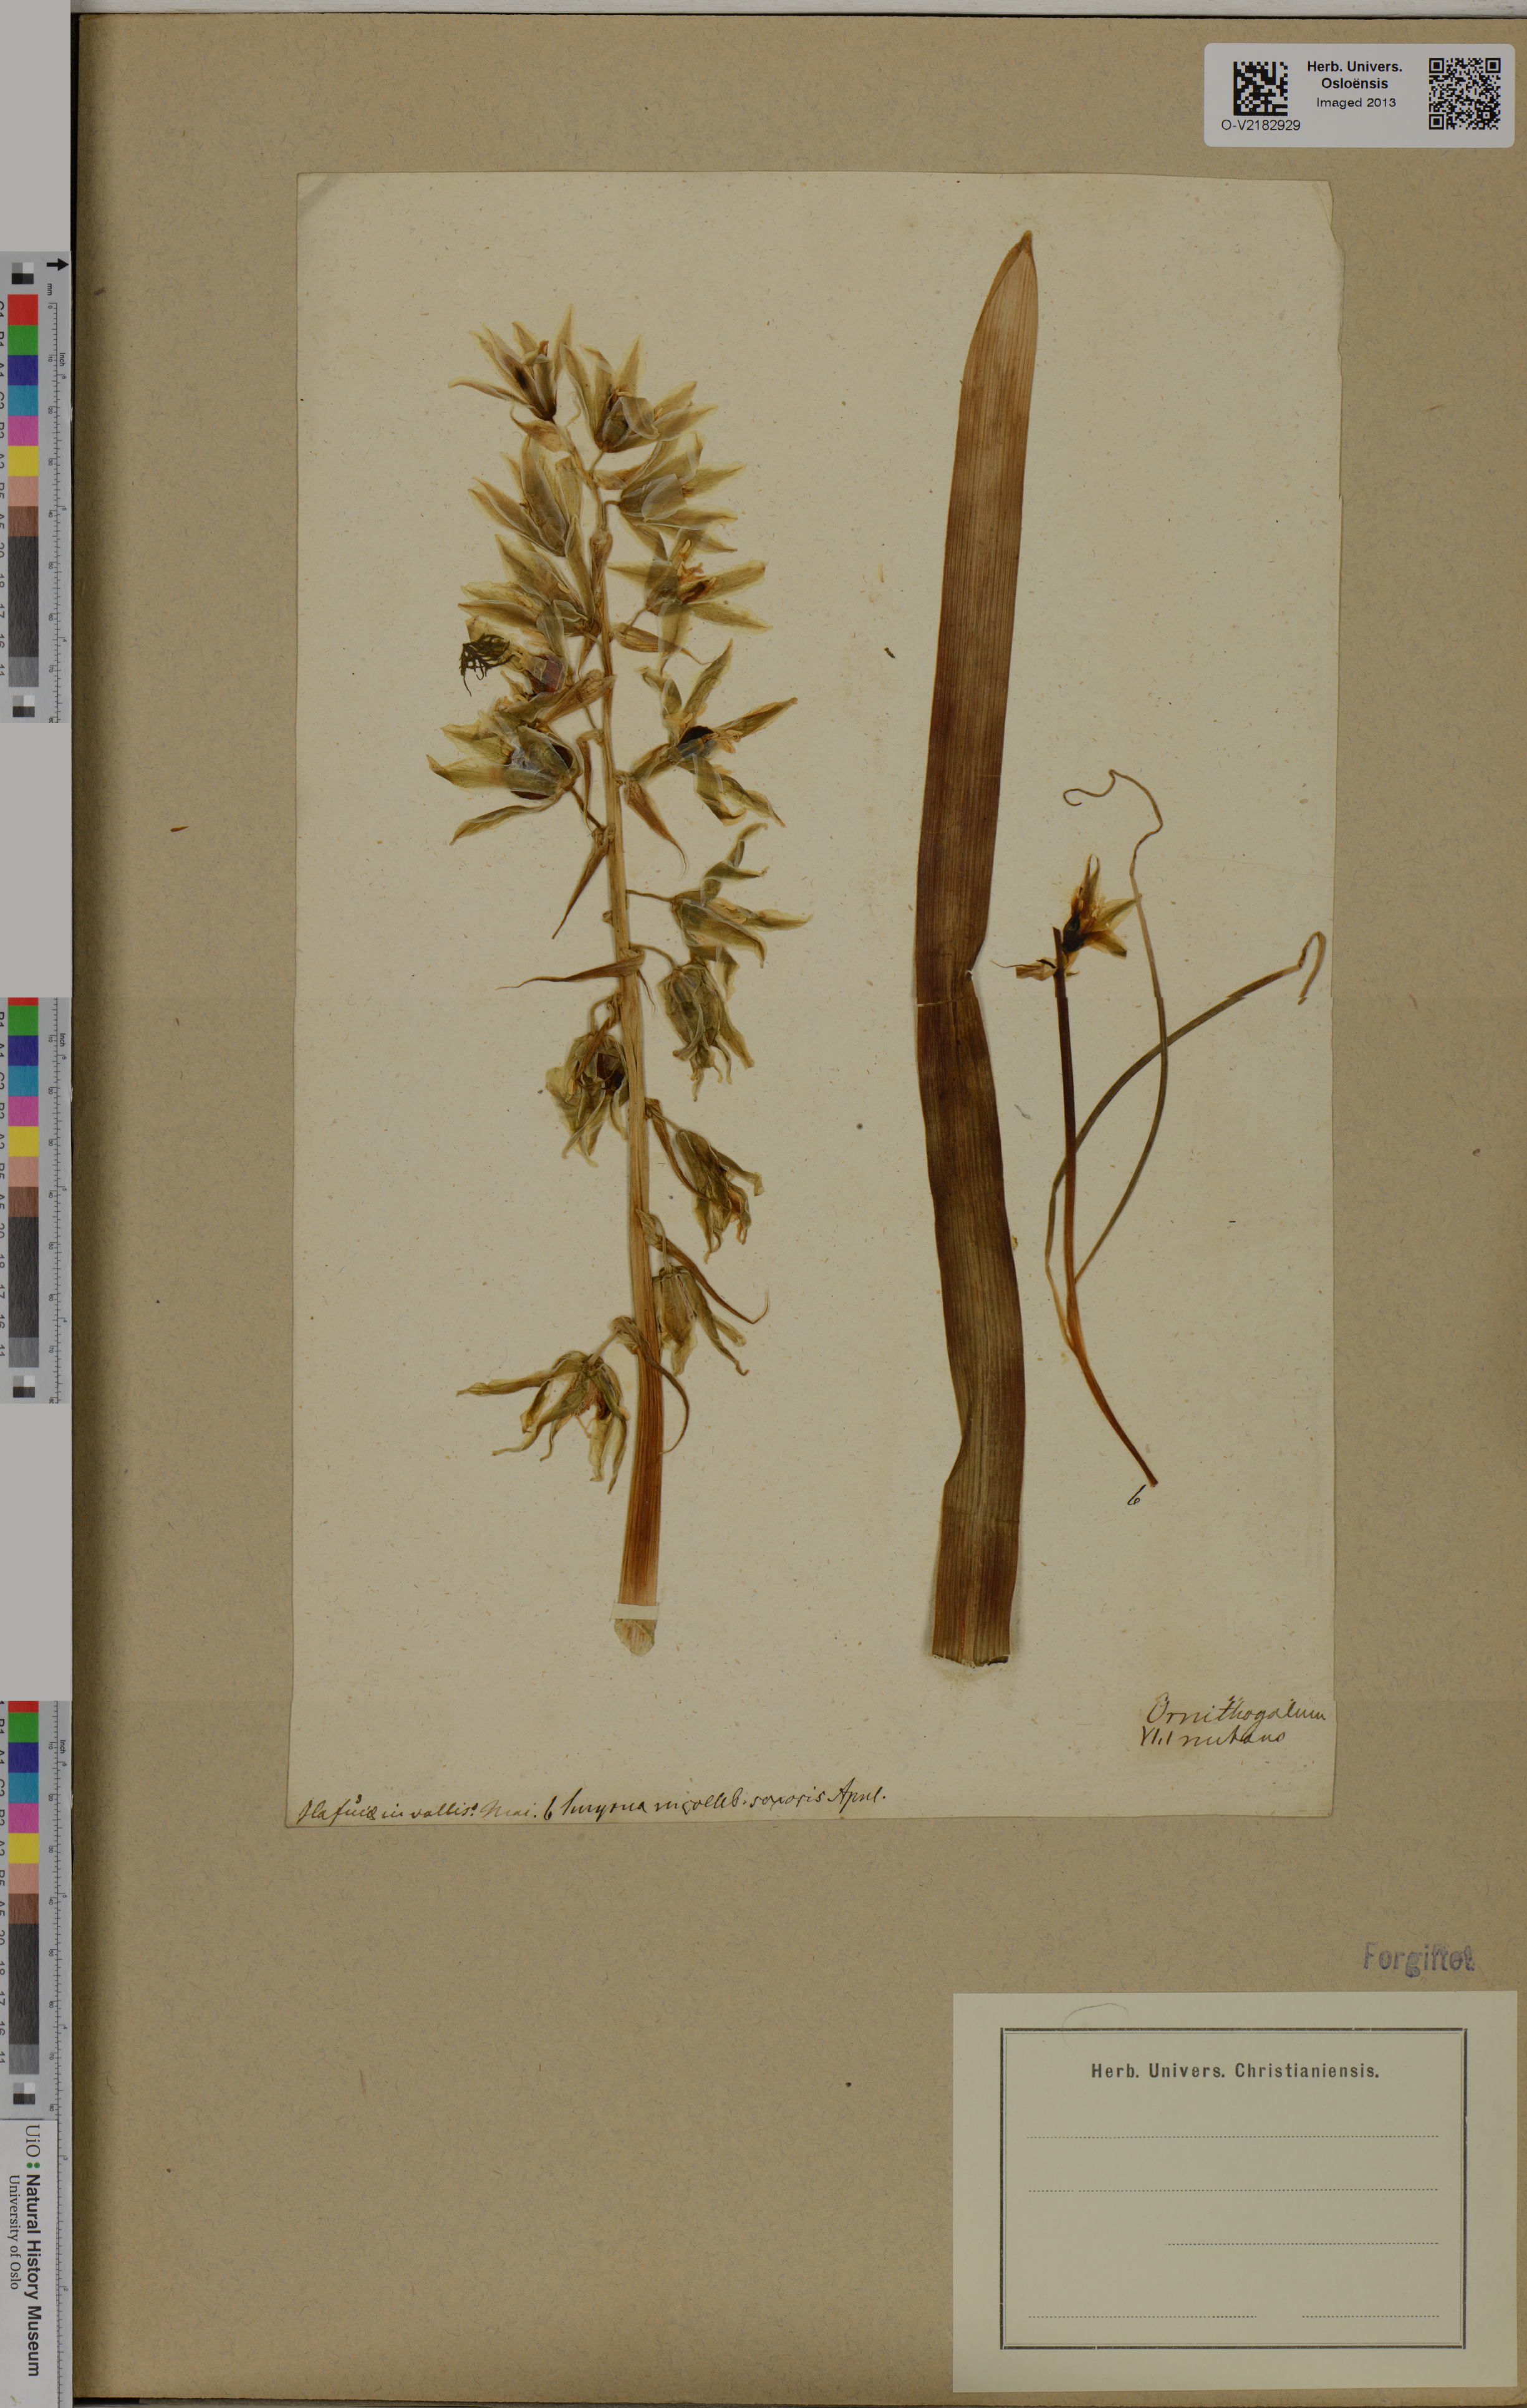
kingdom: Plantae
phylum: Tracheophyta
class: Liliopsida
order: Asparagales
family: Asparagaceae
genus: Ornithogalum
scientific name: Ornithogalum nutans
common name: Drooping star-of-bethlehem
